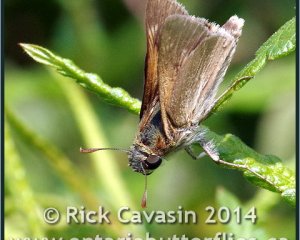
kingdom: Animalia
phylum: Arthropoda
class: Insecta
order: Lepidoptera
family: Hesperiidae
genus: Polites
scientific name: Polites
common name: Crossline Skipper
